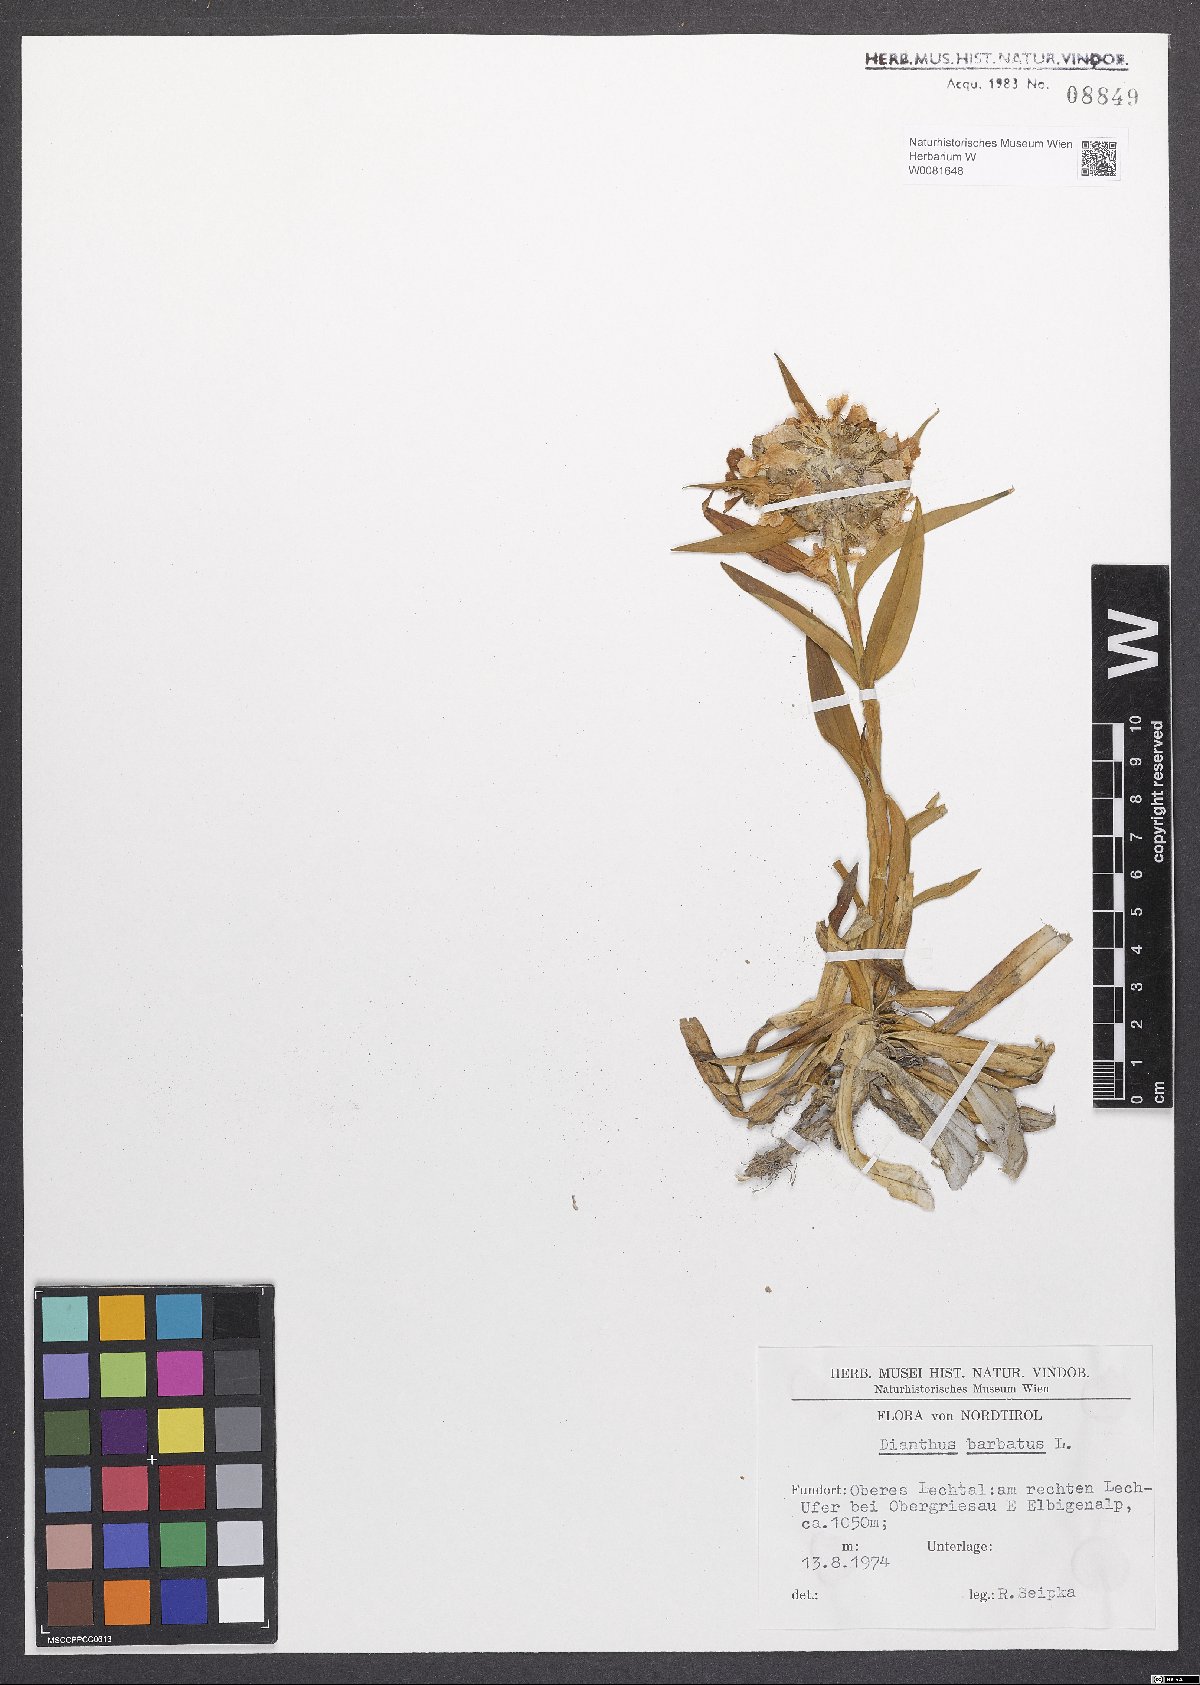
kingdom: Plantae
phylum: Tracheophyta
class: Magnoliopsida
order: Caryophyllales
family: Caryophyllaceae
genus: Dianthus
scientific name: Dianthus barbatus
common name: Sweet-william
